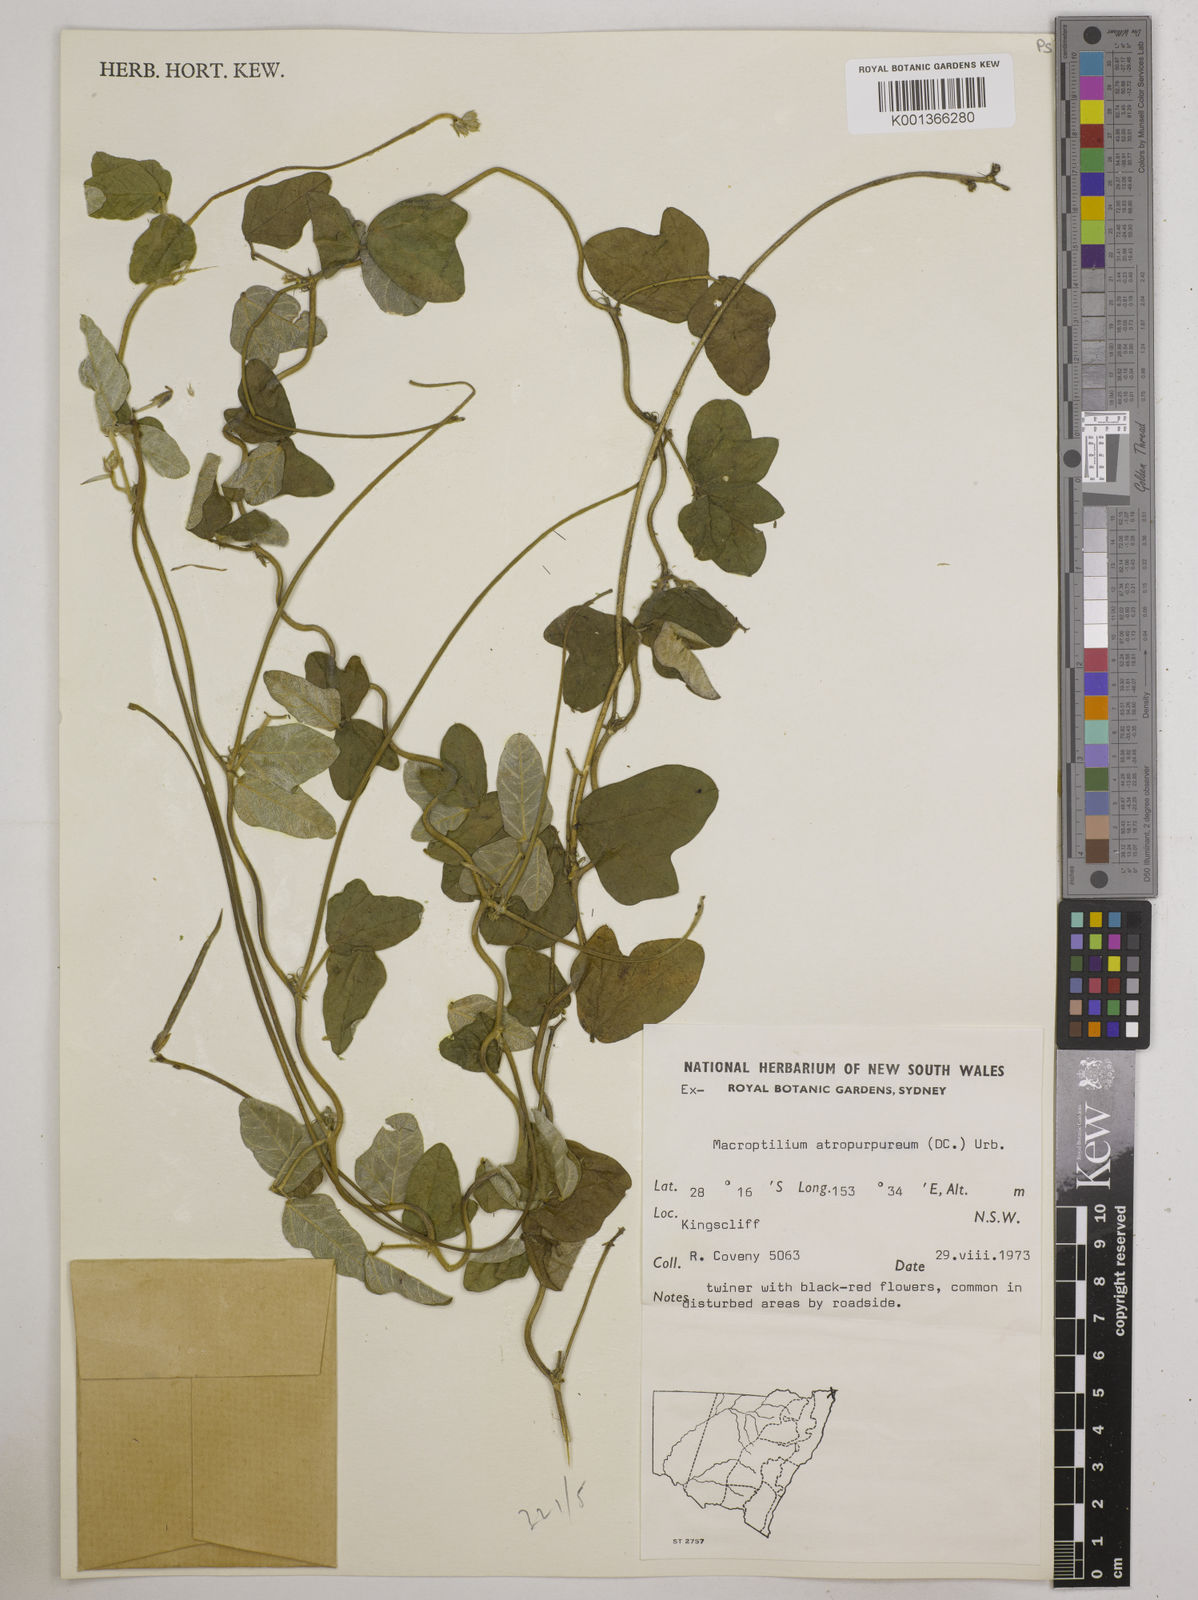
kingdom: Plantae
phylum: Tracheophyta
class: Magnoliopsida
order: Fabales
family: Fabaceae
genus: Macroptilium
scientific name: Macroptilium atropurpureum
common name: Purple bushbean
